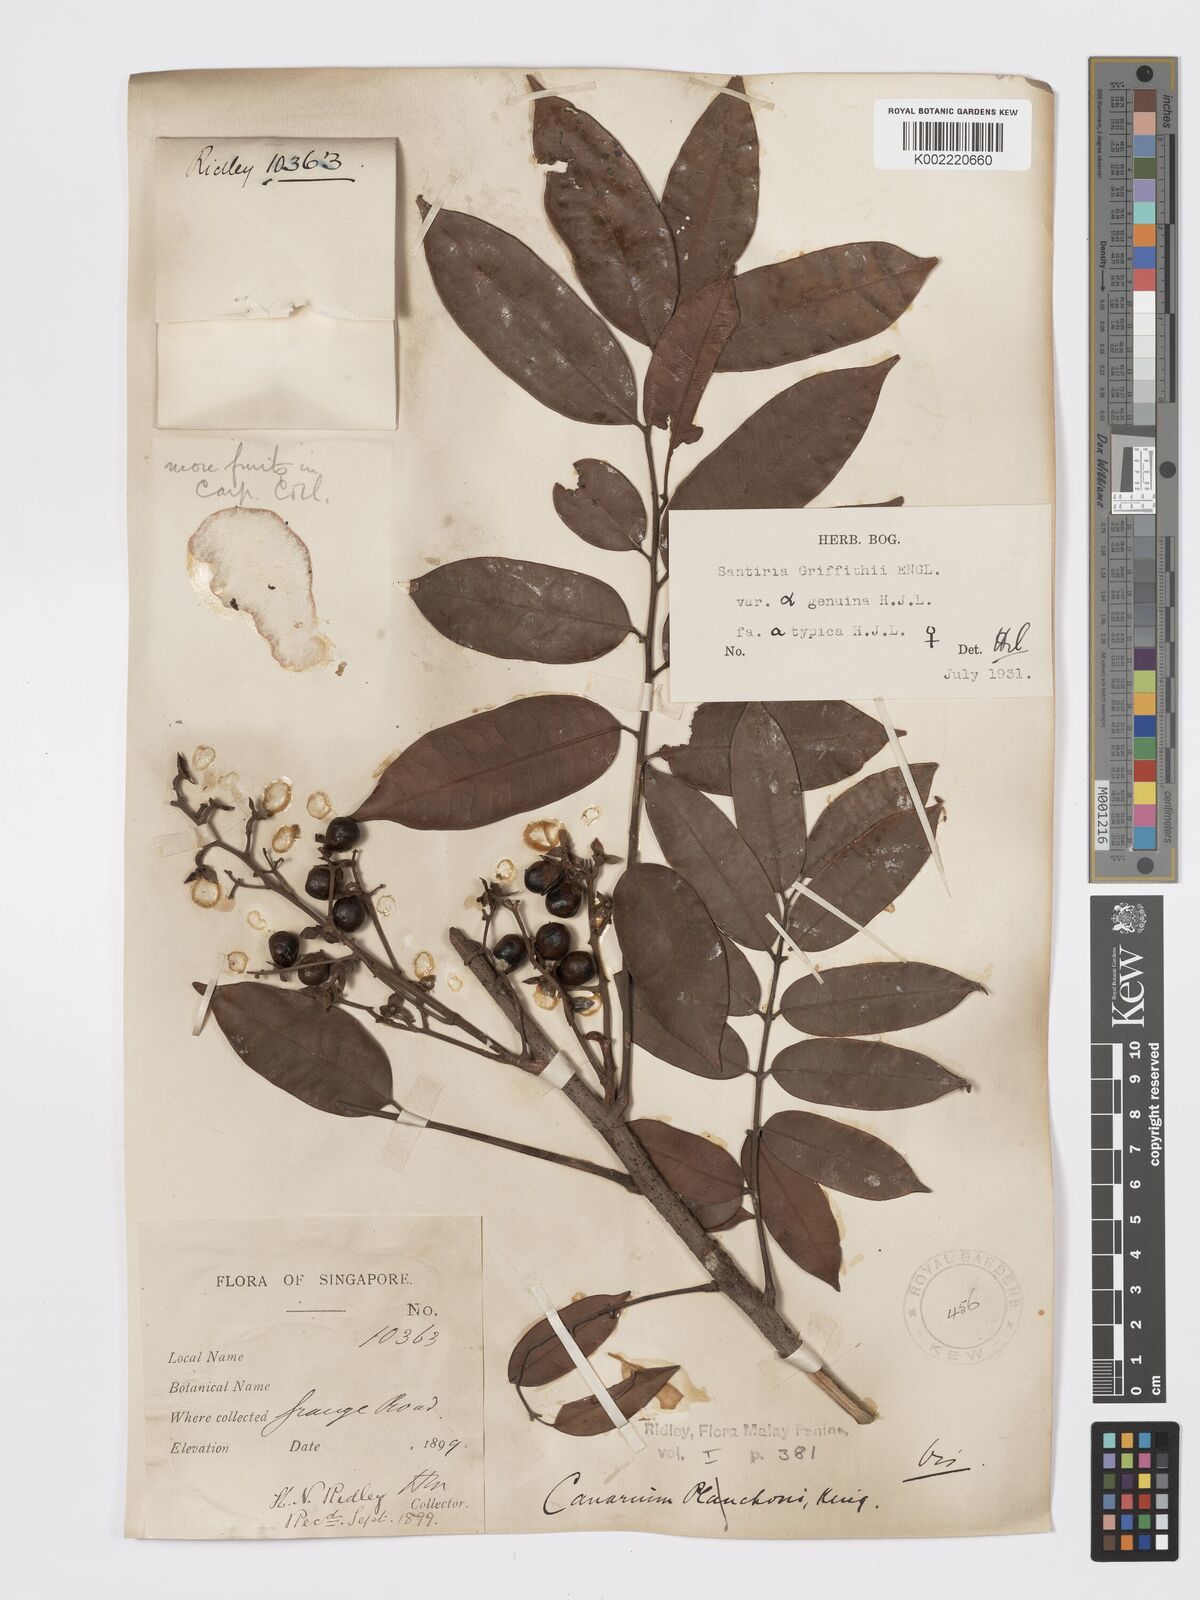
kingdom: Plantae
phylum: Tracheophyta
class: Magnoliopsida
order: Sapindales
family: Burseraceae
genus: Santiria
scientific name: Santiria griffithii
